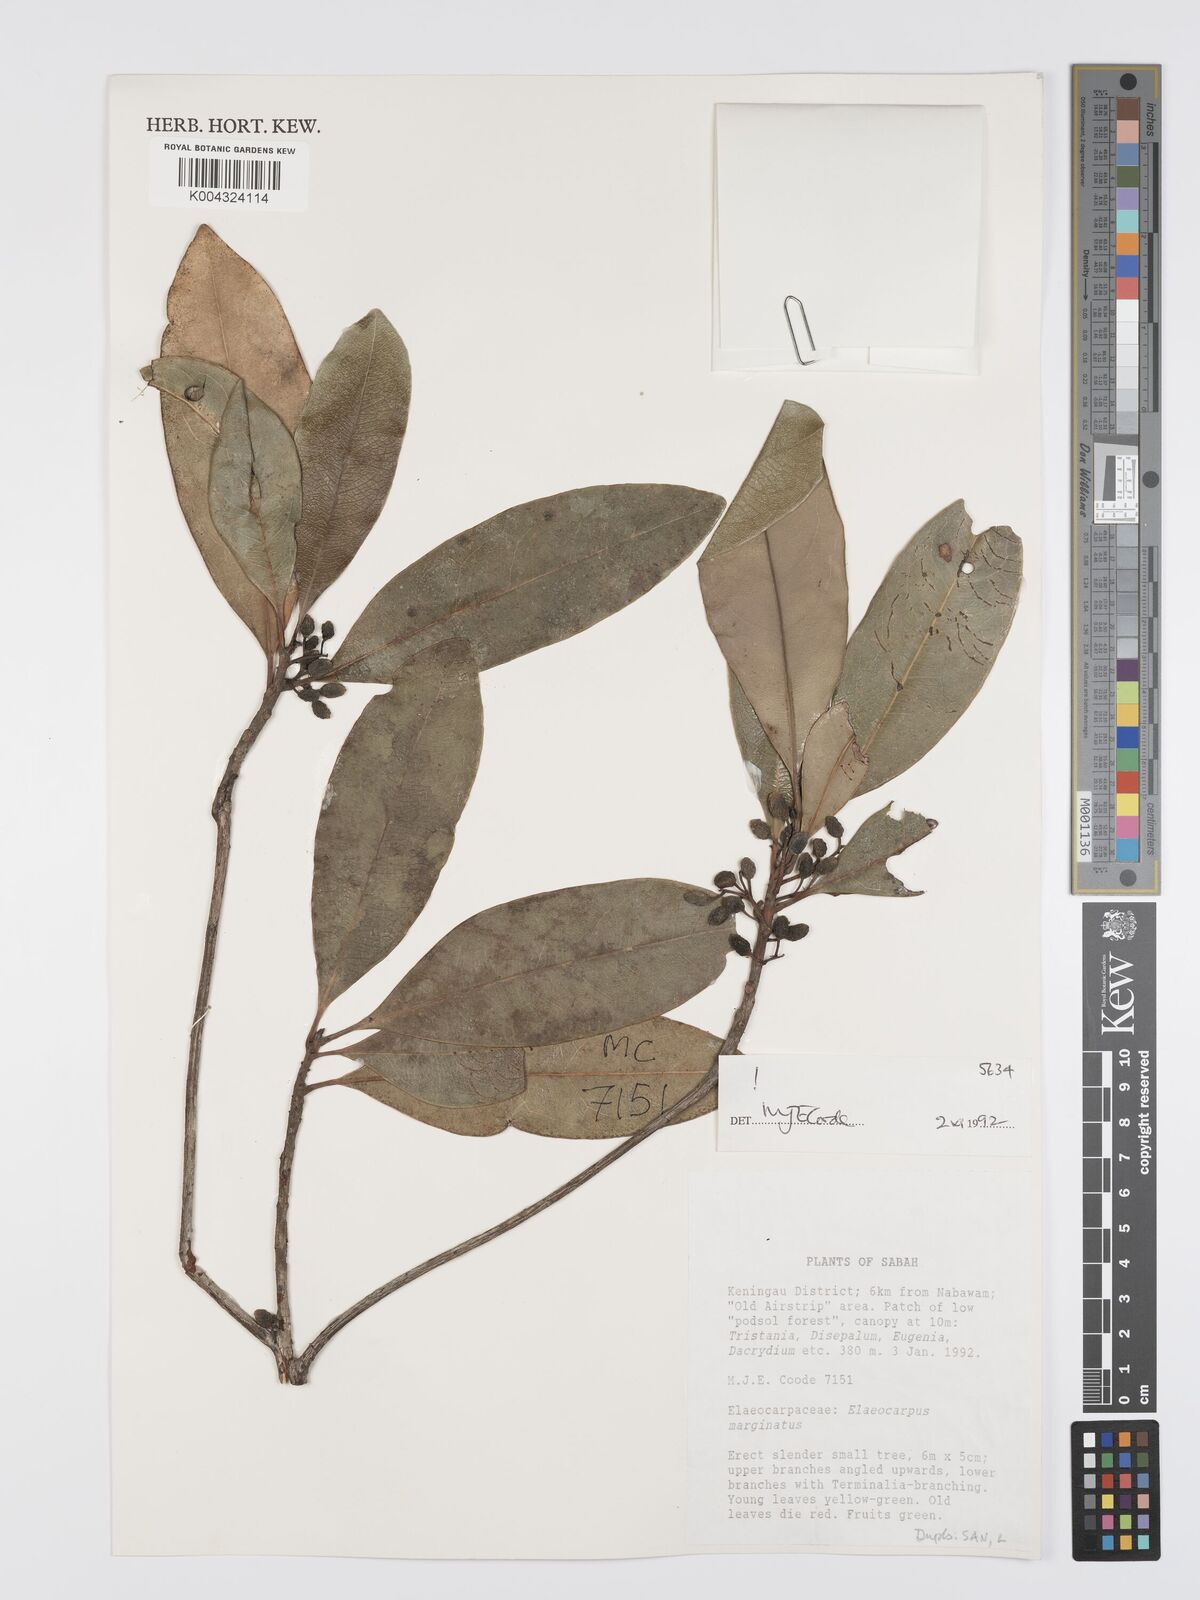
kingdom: Plantae
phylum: Tracheophyta
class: Magnoliopsida
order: Oxalidales
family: Elaeocarpaceae
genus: Elaeocarpus
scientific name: Elaeocarpus marginatus
